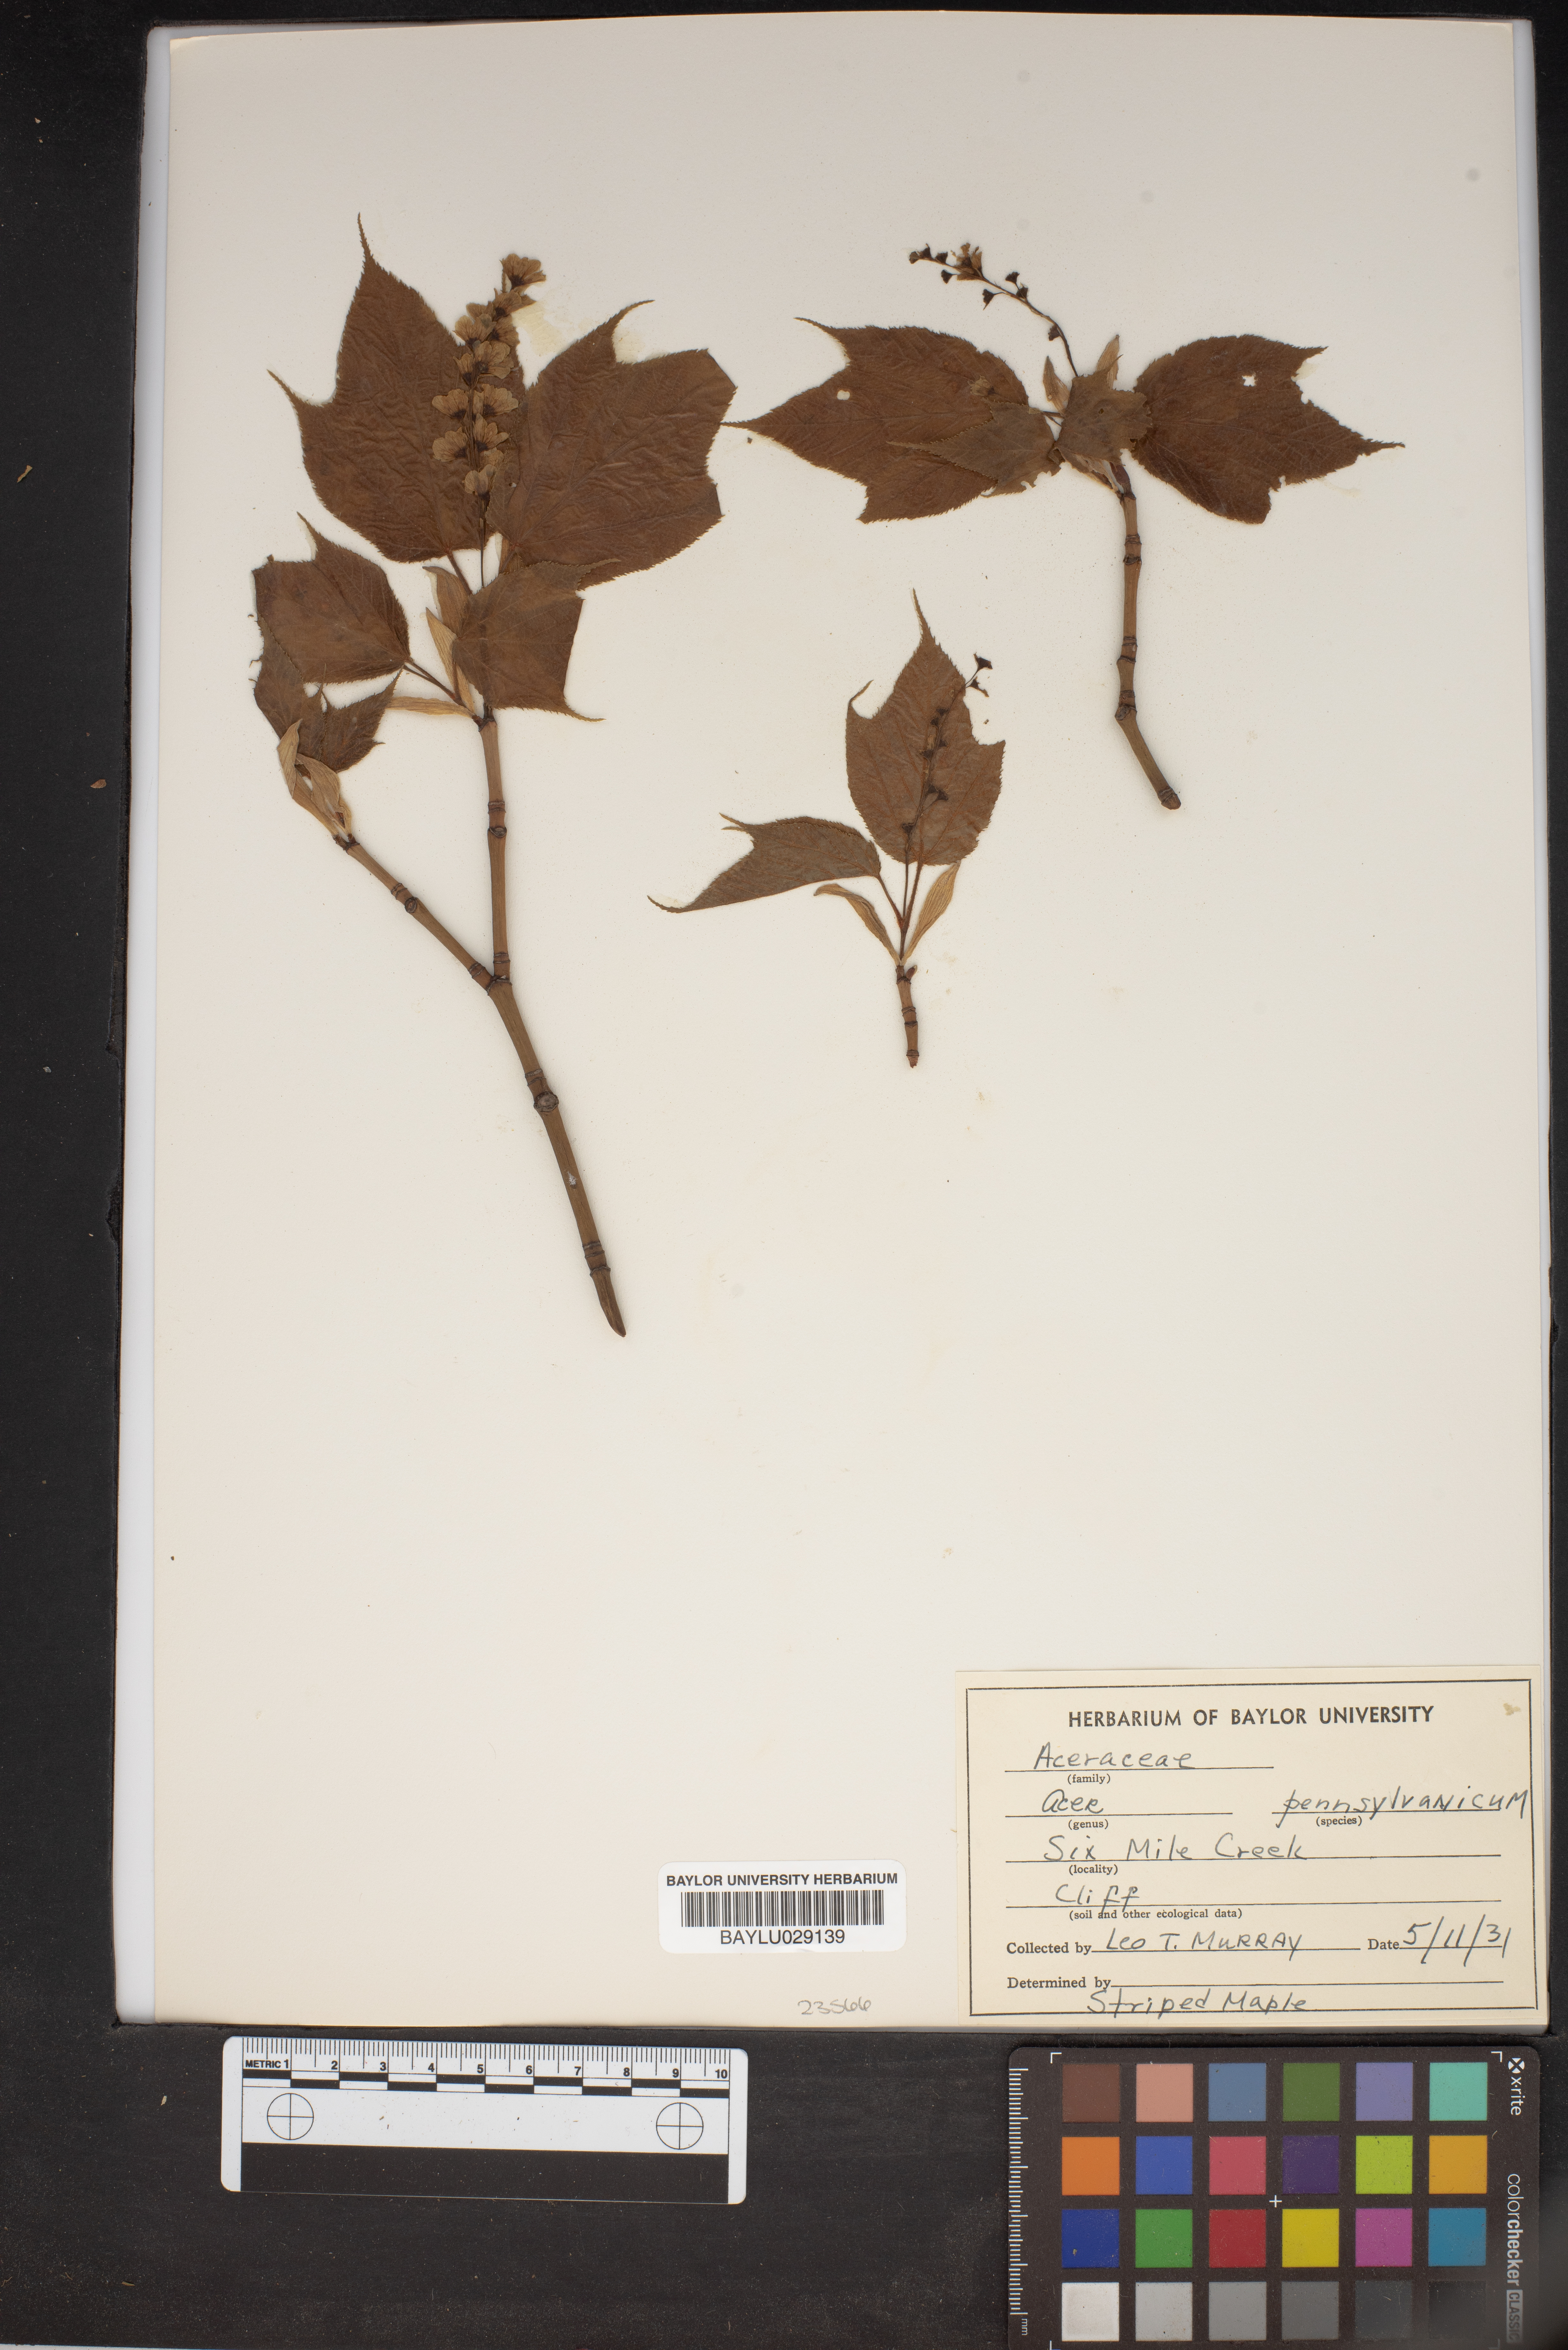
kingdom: Plantae
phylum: Tracheophyta
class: Magnoliopsida
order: Sapindales
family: Sapindaceae
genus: Acer
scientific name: Acer spicatum
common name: Mountain maple
